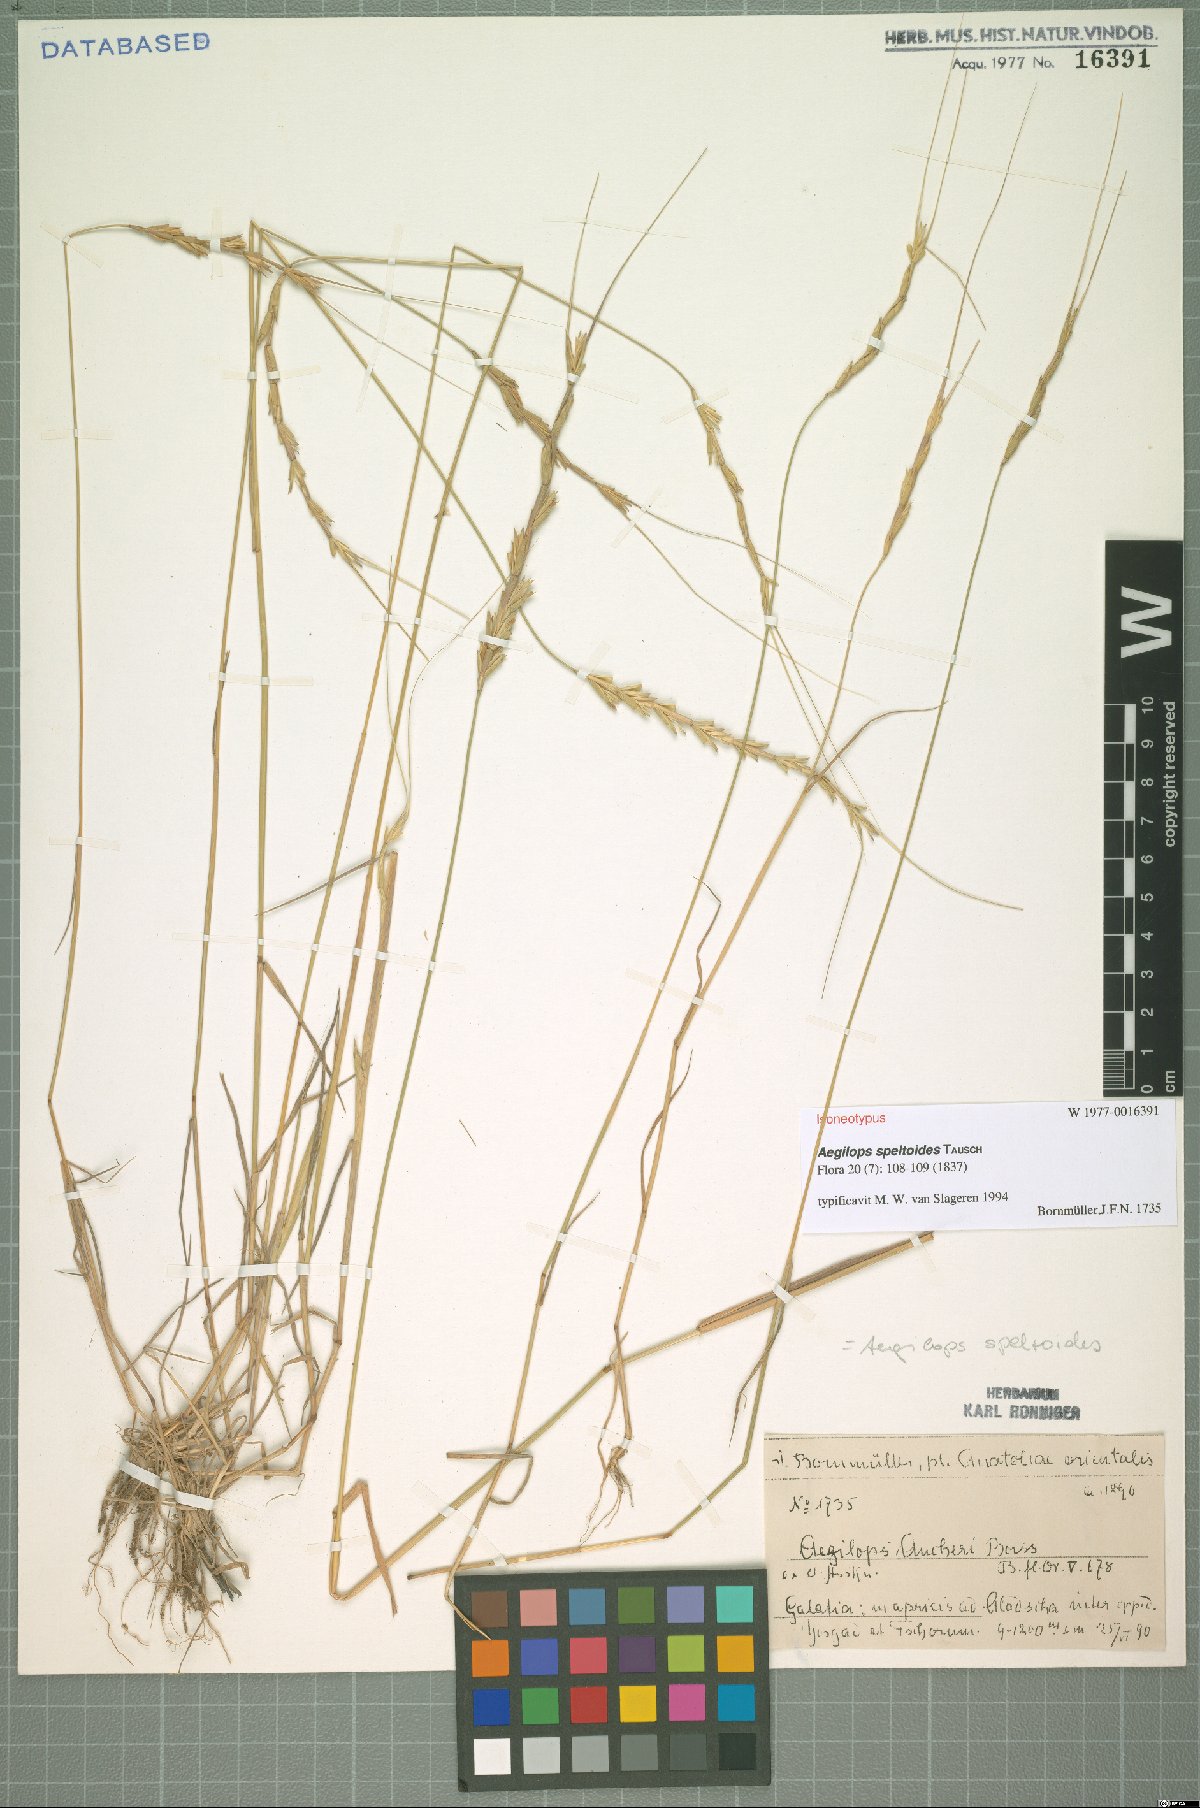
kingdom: Plantae
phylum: Tracheophyta
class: Liliopsida
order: Poales
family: Poaceae
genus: Aegilops
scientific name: Aegilops speltoides
